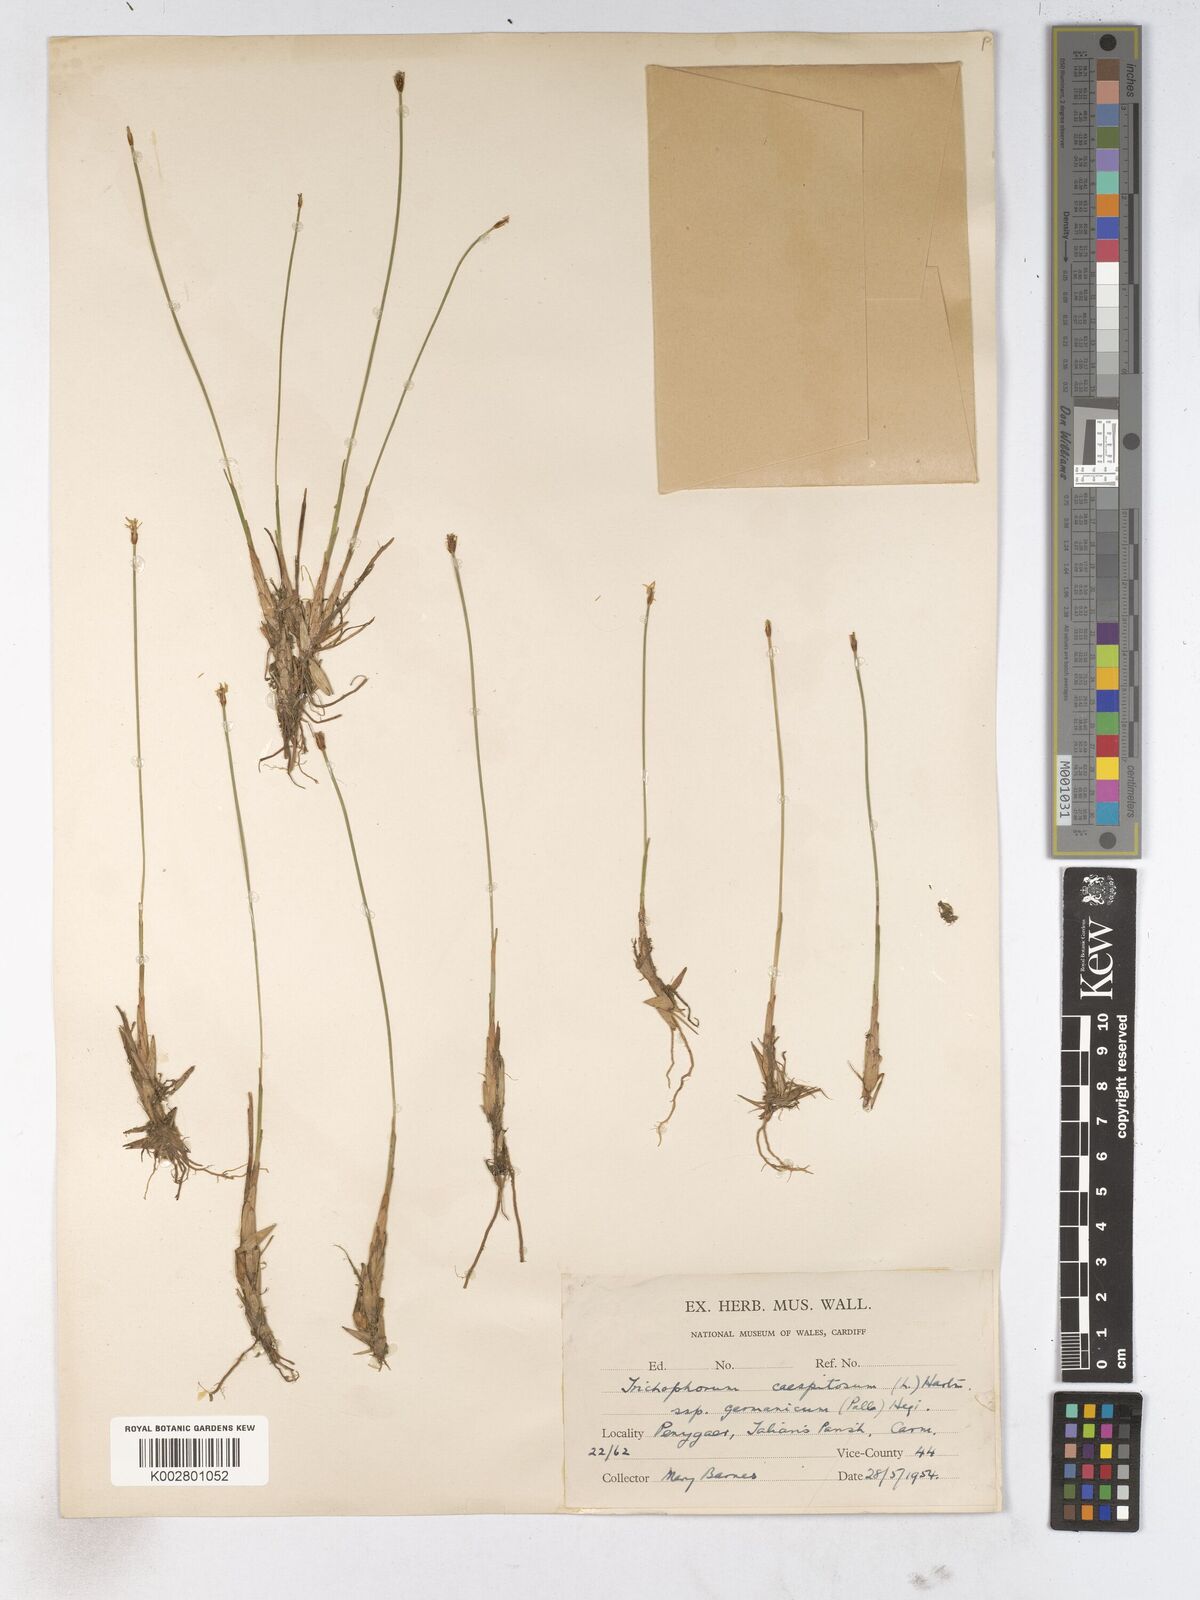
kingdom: Plantae
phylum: Tracheophyta
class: Liliopsida
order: Poales
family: Cyperaceae
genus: Trichophorum
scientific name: Trichophorum cespitosum
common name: Cespitose bulrush
